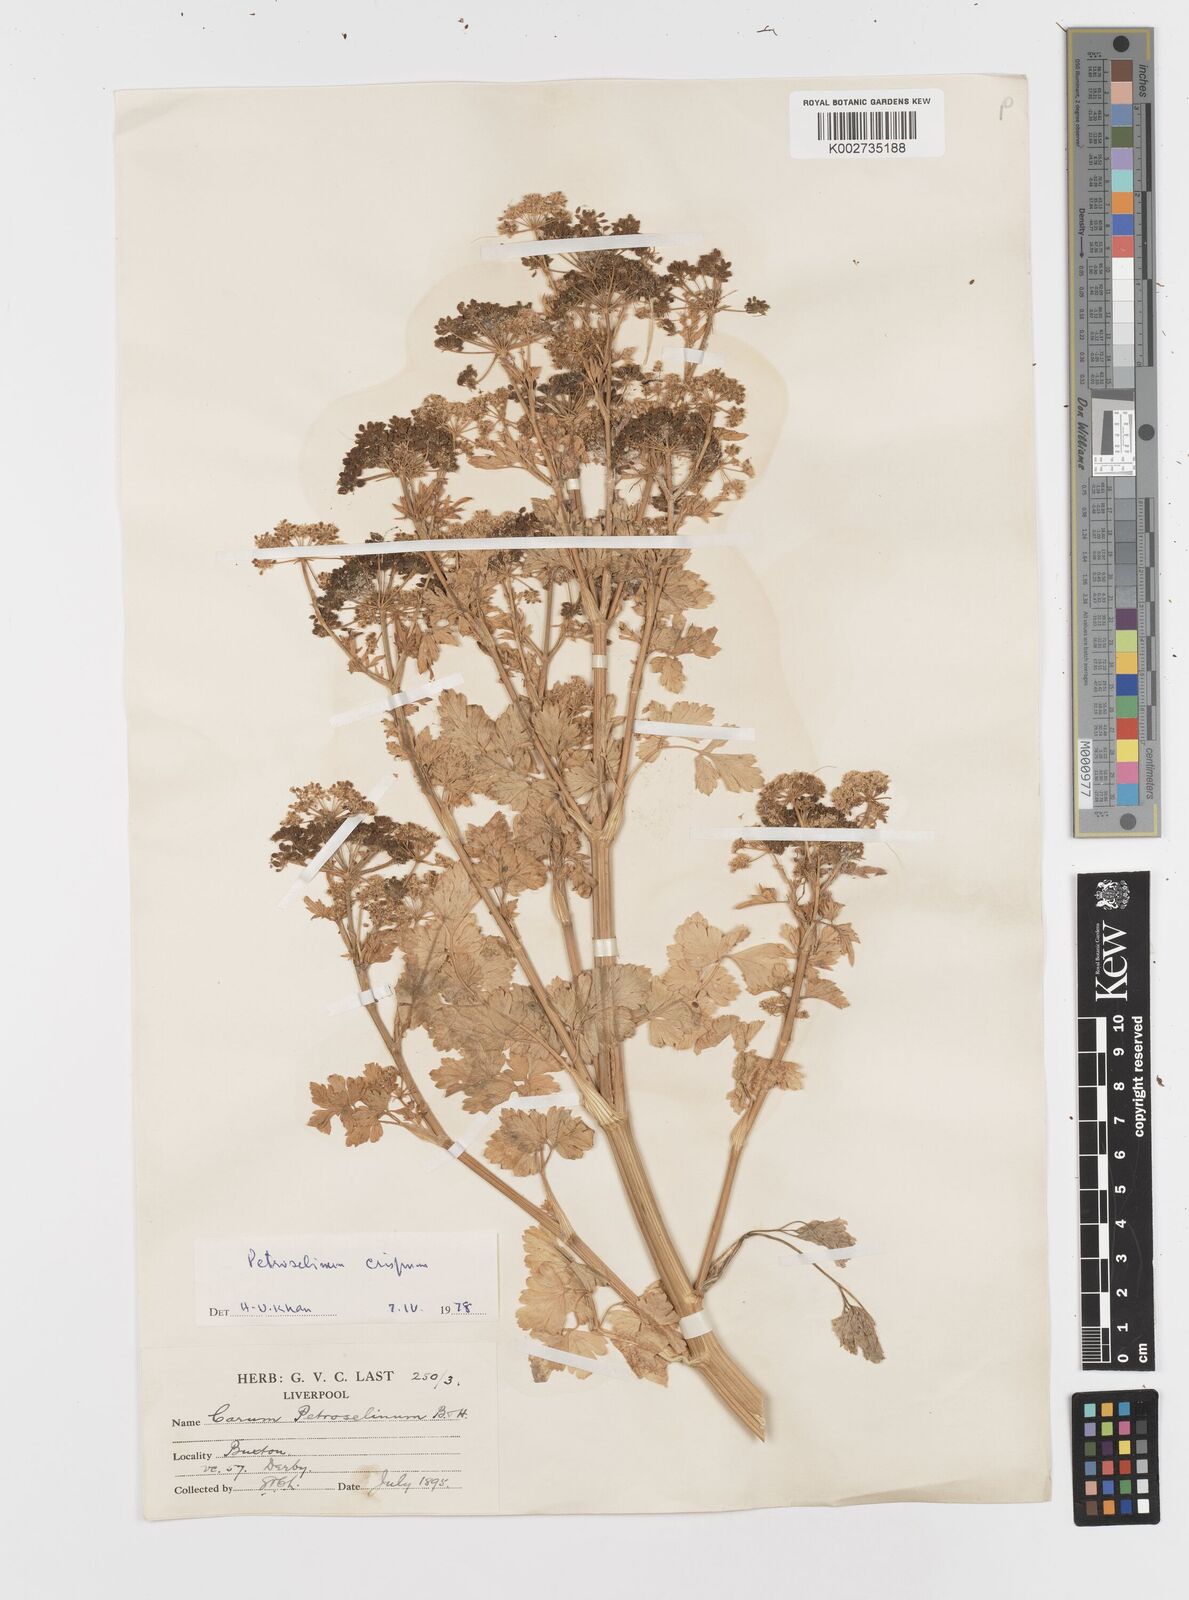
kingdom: Plantae
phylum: Tracheophyta
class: Magnoliopsida
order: Apiales
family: Apiaceae
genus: Petroselinum
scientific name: Petroselinum crispum
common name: Parsley
